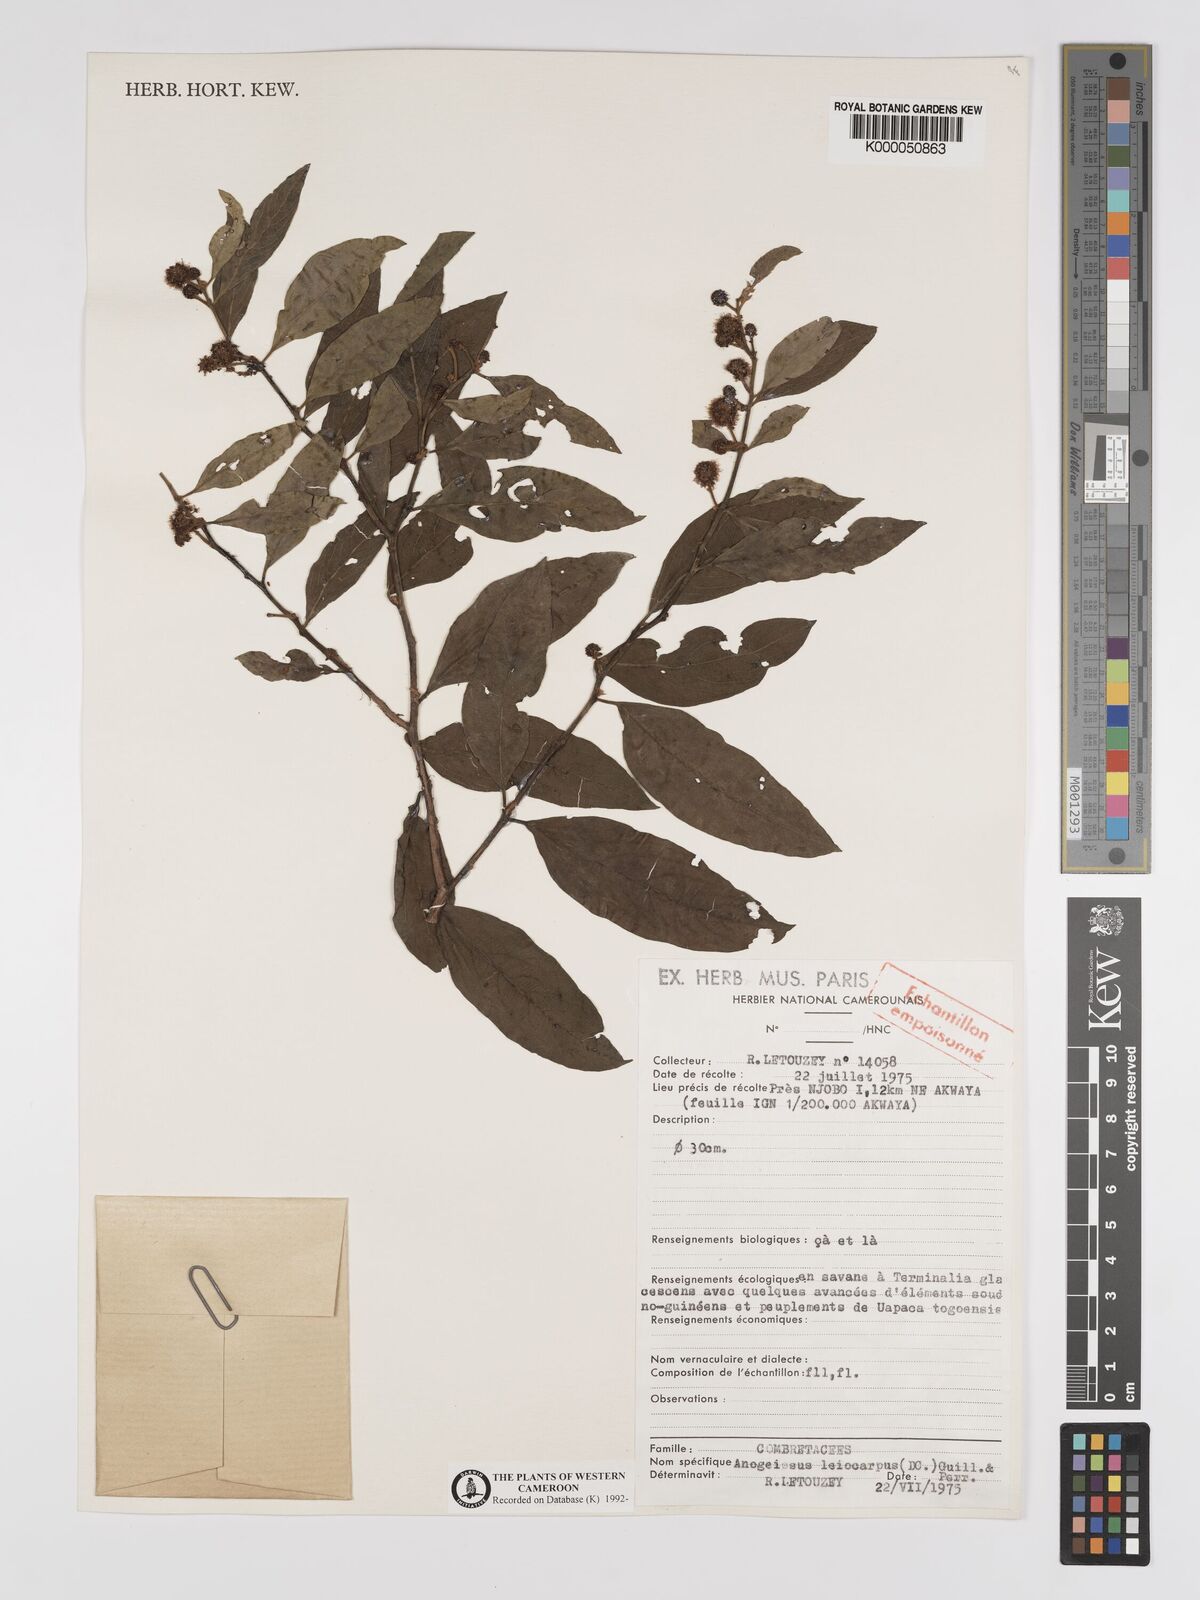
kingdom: Plantae
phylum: Tracheophyta
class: Magnoliopsida
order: Myrtales
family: Combretaceae
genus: Terminalia
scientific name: Terminalia leiocarpa
